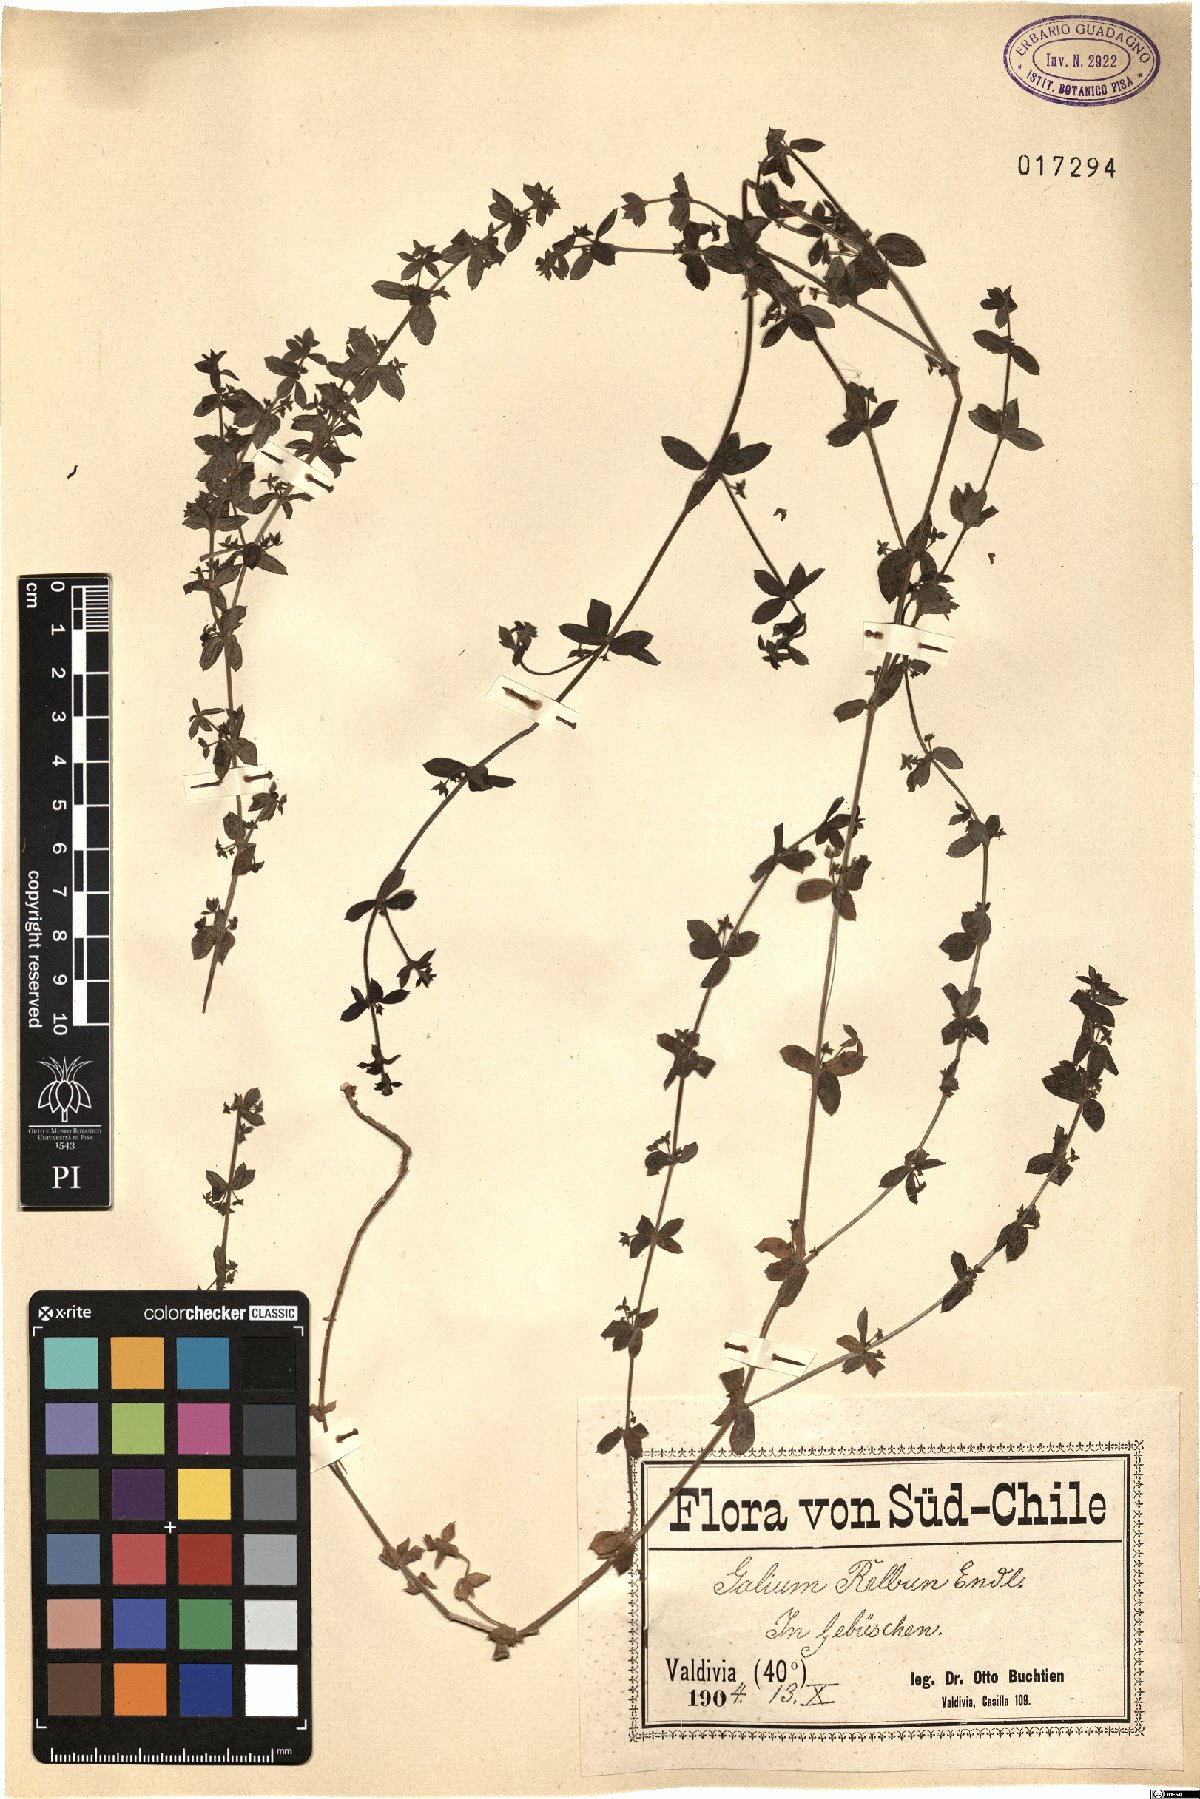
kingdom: Plantae
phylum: Tracheophyta
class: Magnoliopsida
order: Gentianales
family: Rubiaceae
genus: Galium
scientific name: Galium hypocarpium
